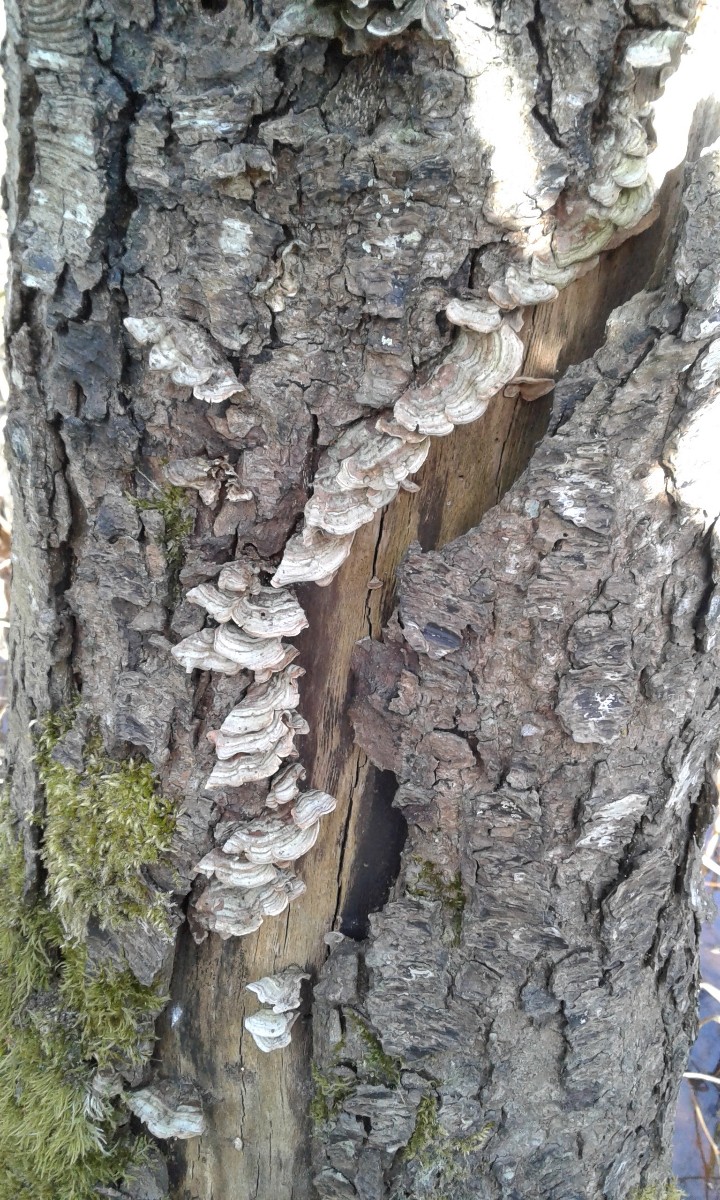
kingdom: Fungi
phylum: Basidiomycota
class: Agaricomycetes
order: Russulales
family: Stereaceae
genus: Stereum
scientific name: Stereum subtomentosum
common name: smuk lædersvamp
